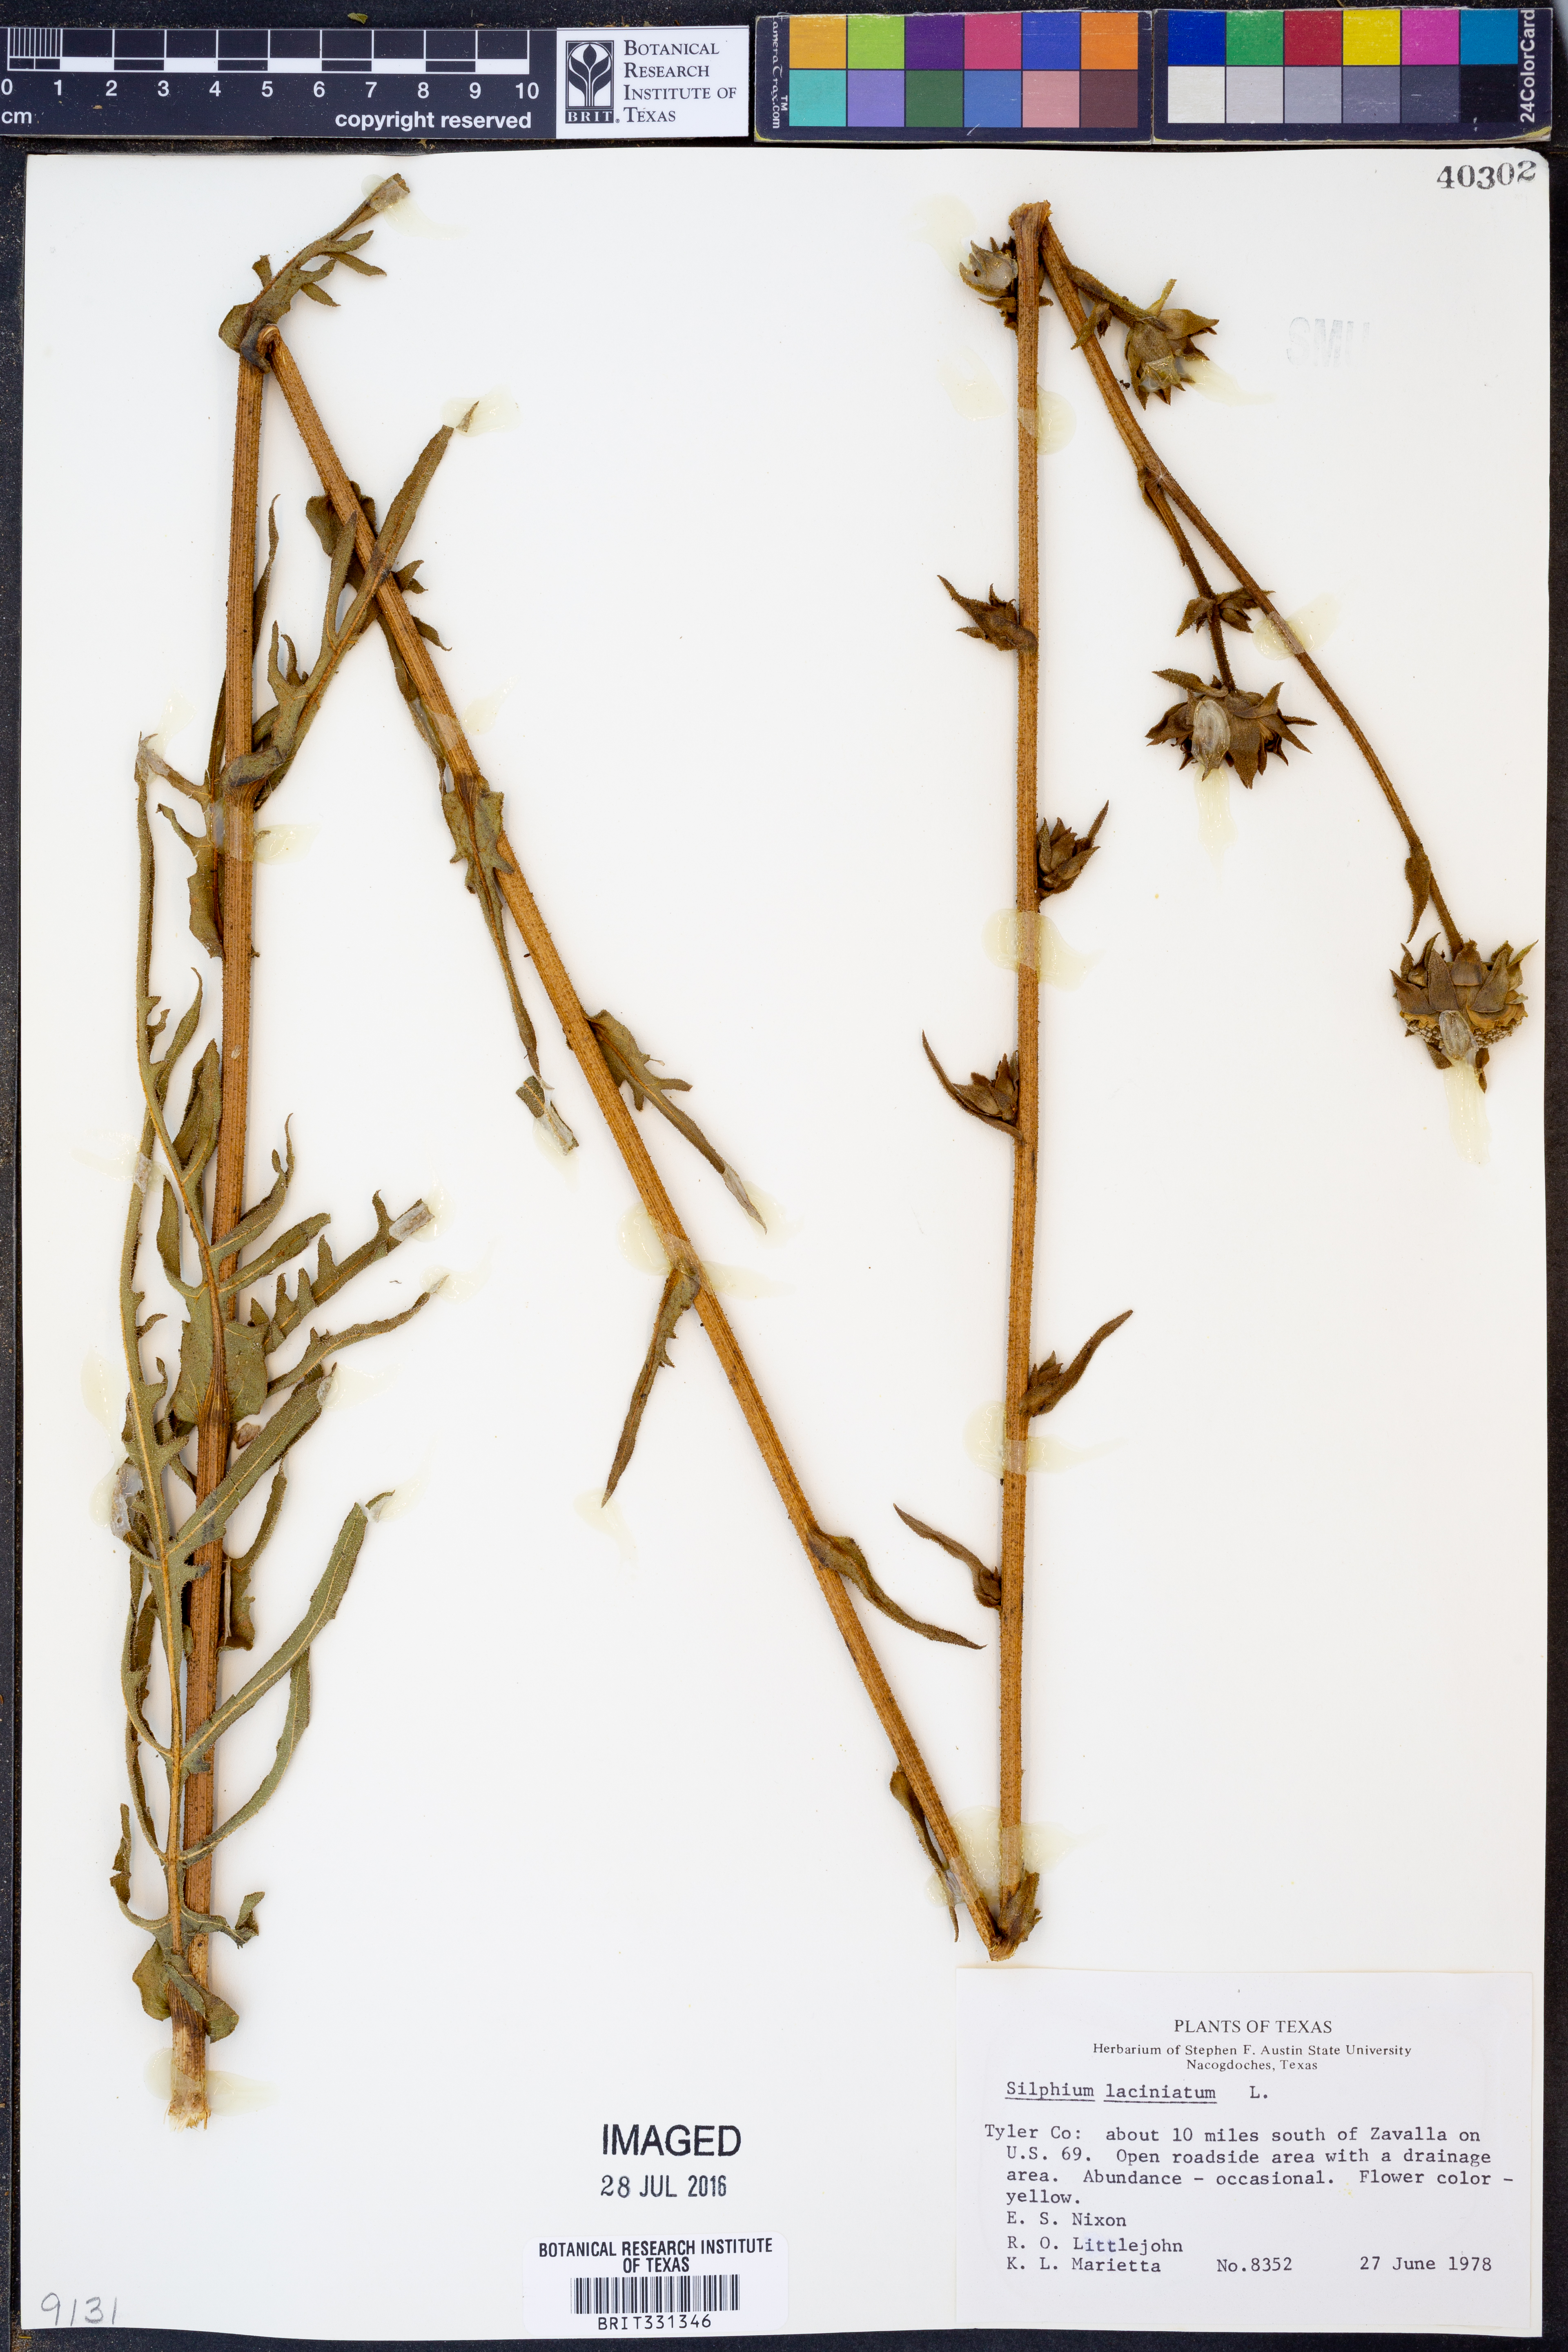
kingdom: Plantae
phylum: Tracheophyta
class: Magnoliopsida
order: Asterales
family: Asteraceae
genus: Silphium
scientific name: Silphium laciniatum
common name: Polarplant
